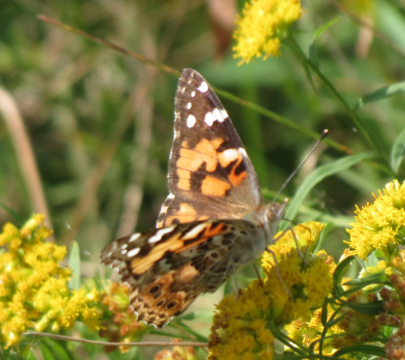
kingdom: Animalia
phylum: Arthropoda
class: Insecta
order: Lepidoptera
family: Nymphalidae
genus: Vanessa
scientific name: Vanessa cardui
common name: Painted Lady
